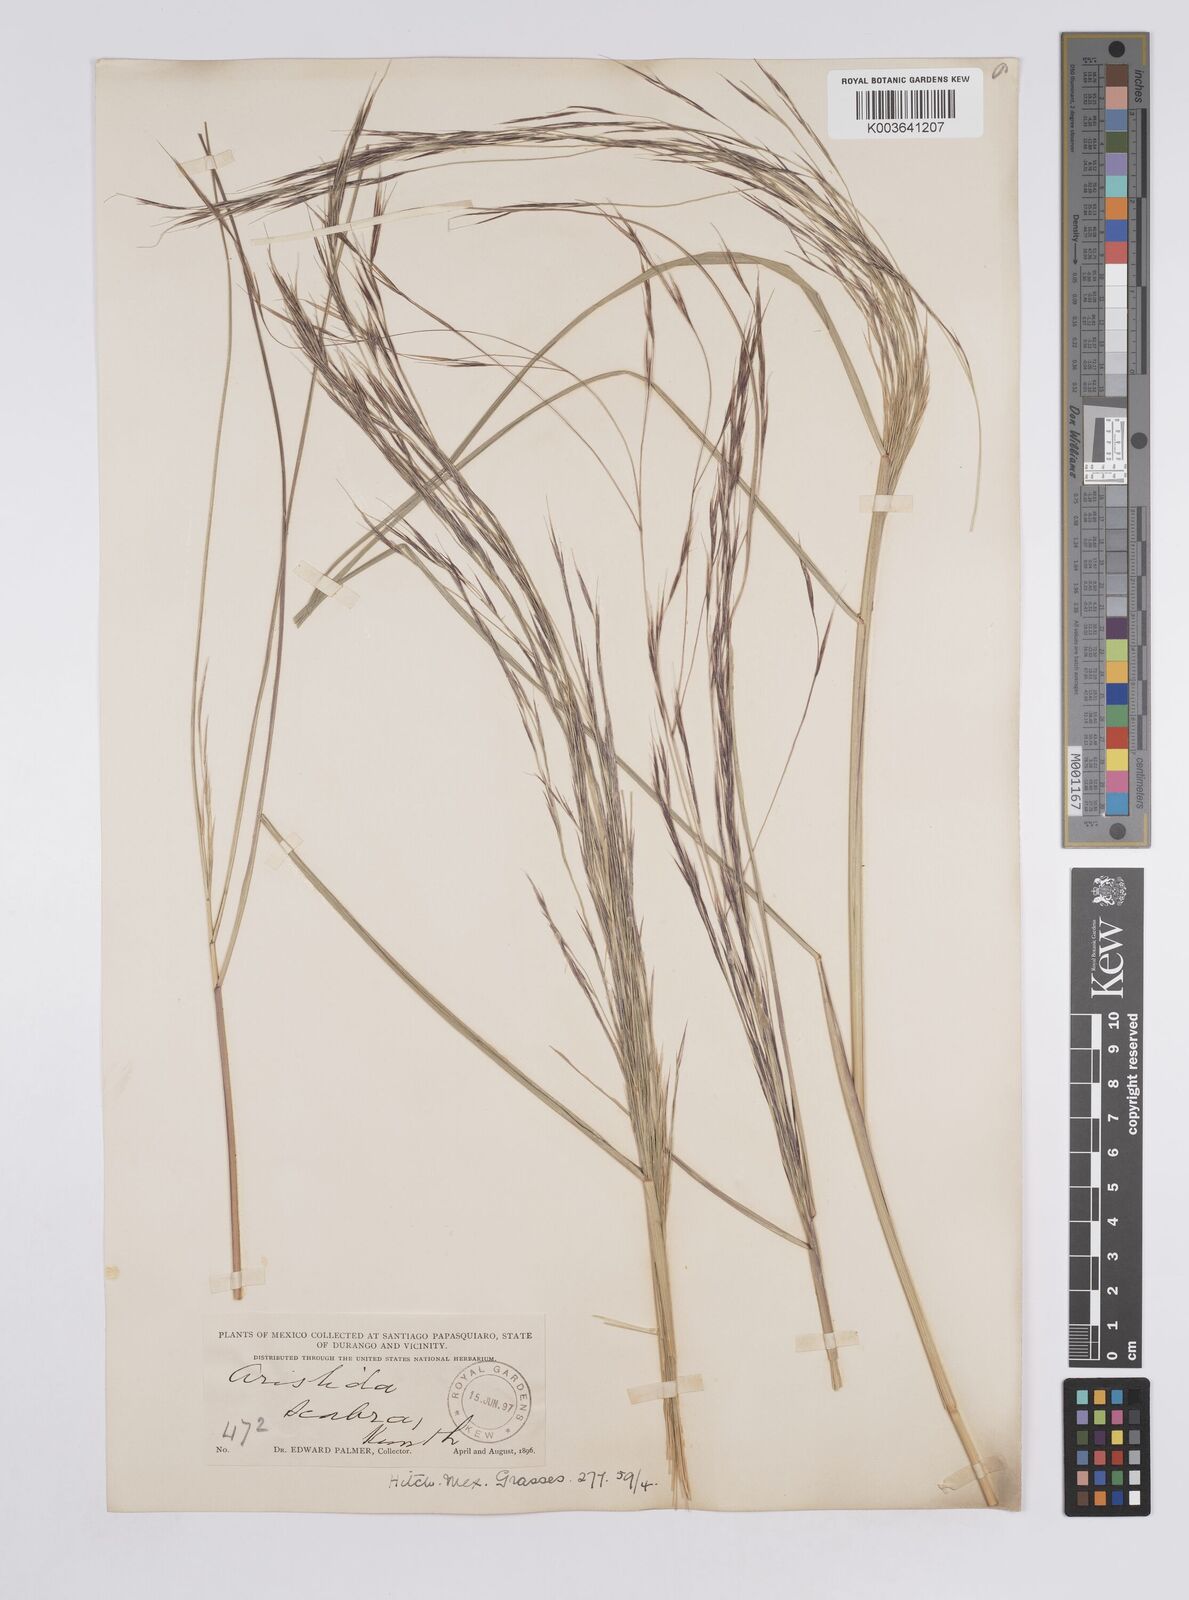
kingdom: Plantae
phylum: Tracheophyta
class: Liliopsida
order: Poales
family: Poaceae
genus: Aristida
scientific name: Aristida ternipes
